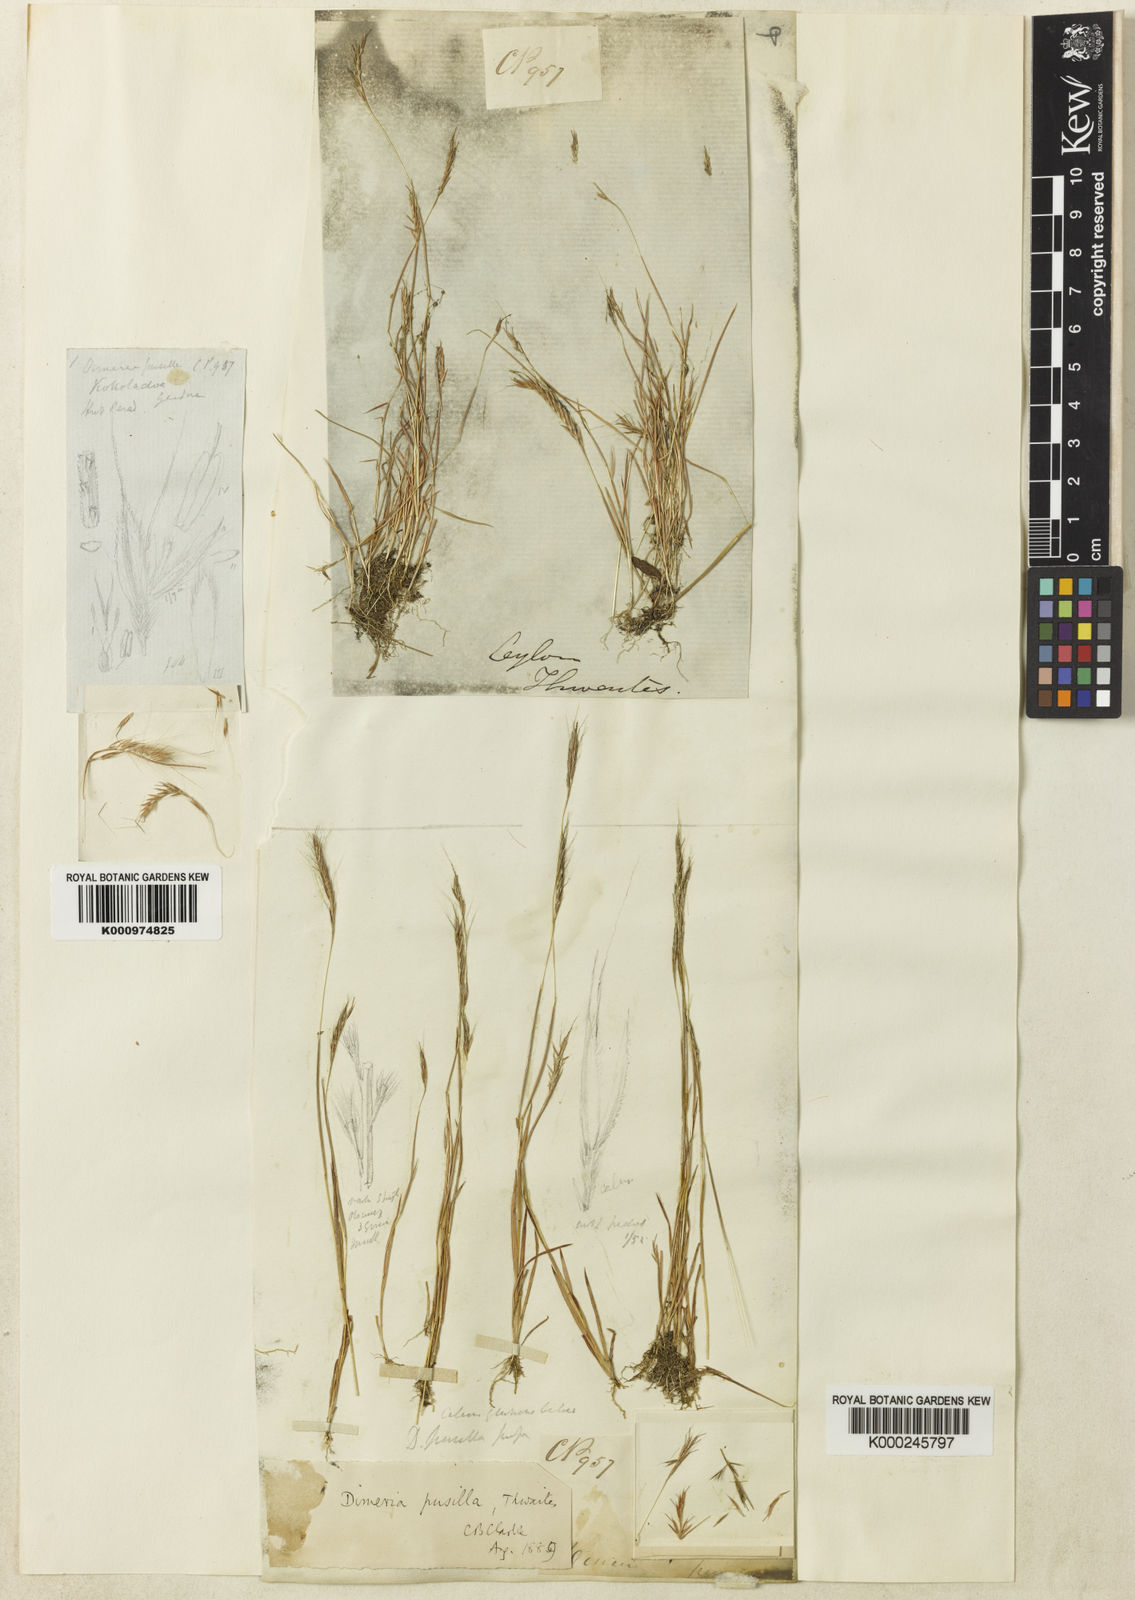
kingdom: Plantae
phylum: Tracheophyta
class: Liliopsida
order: Poales
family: Poaceae
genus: Dimeria
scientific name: Dimeria thwaitesii
